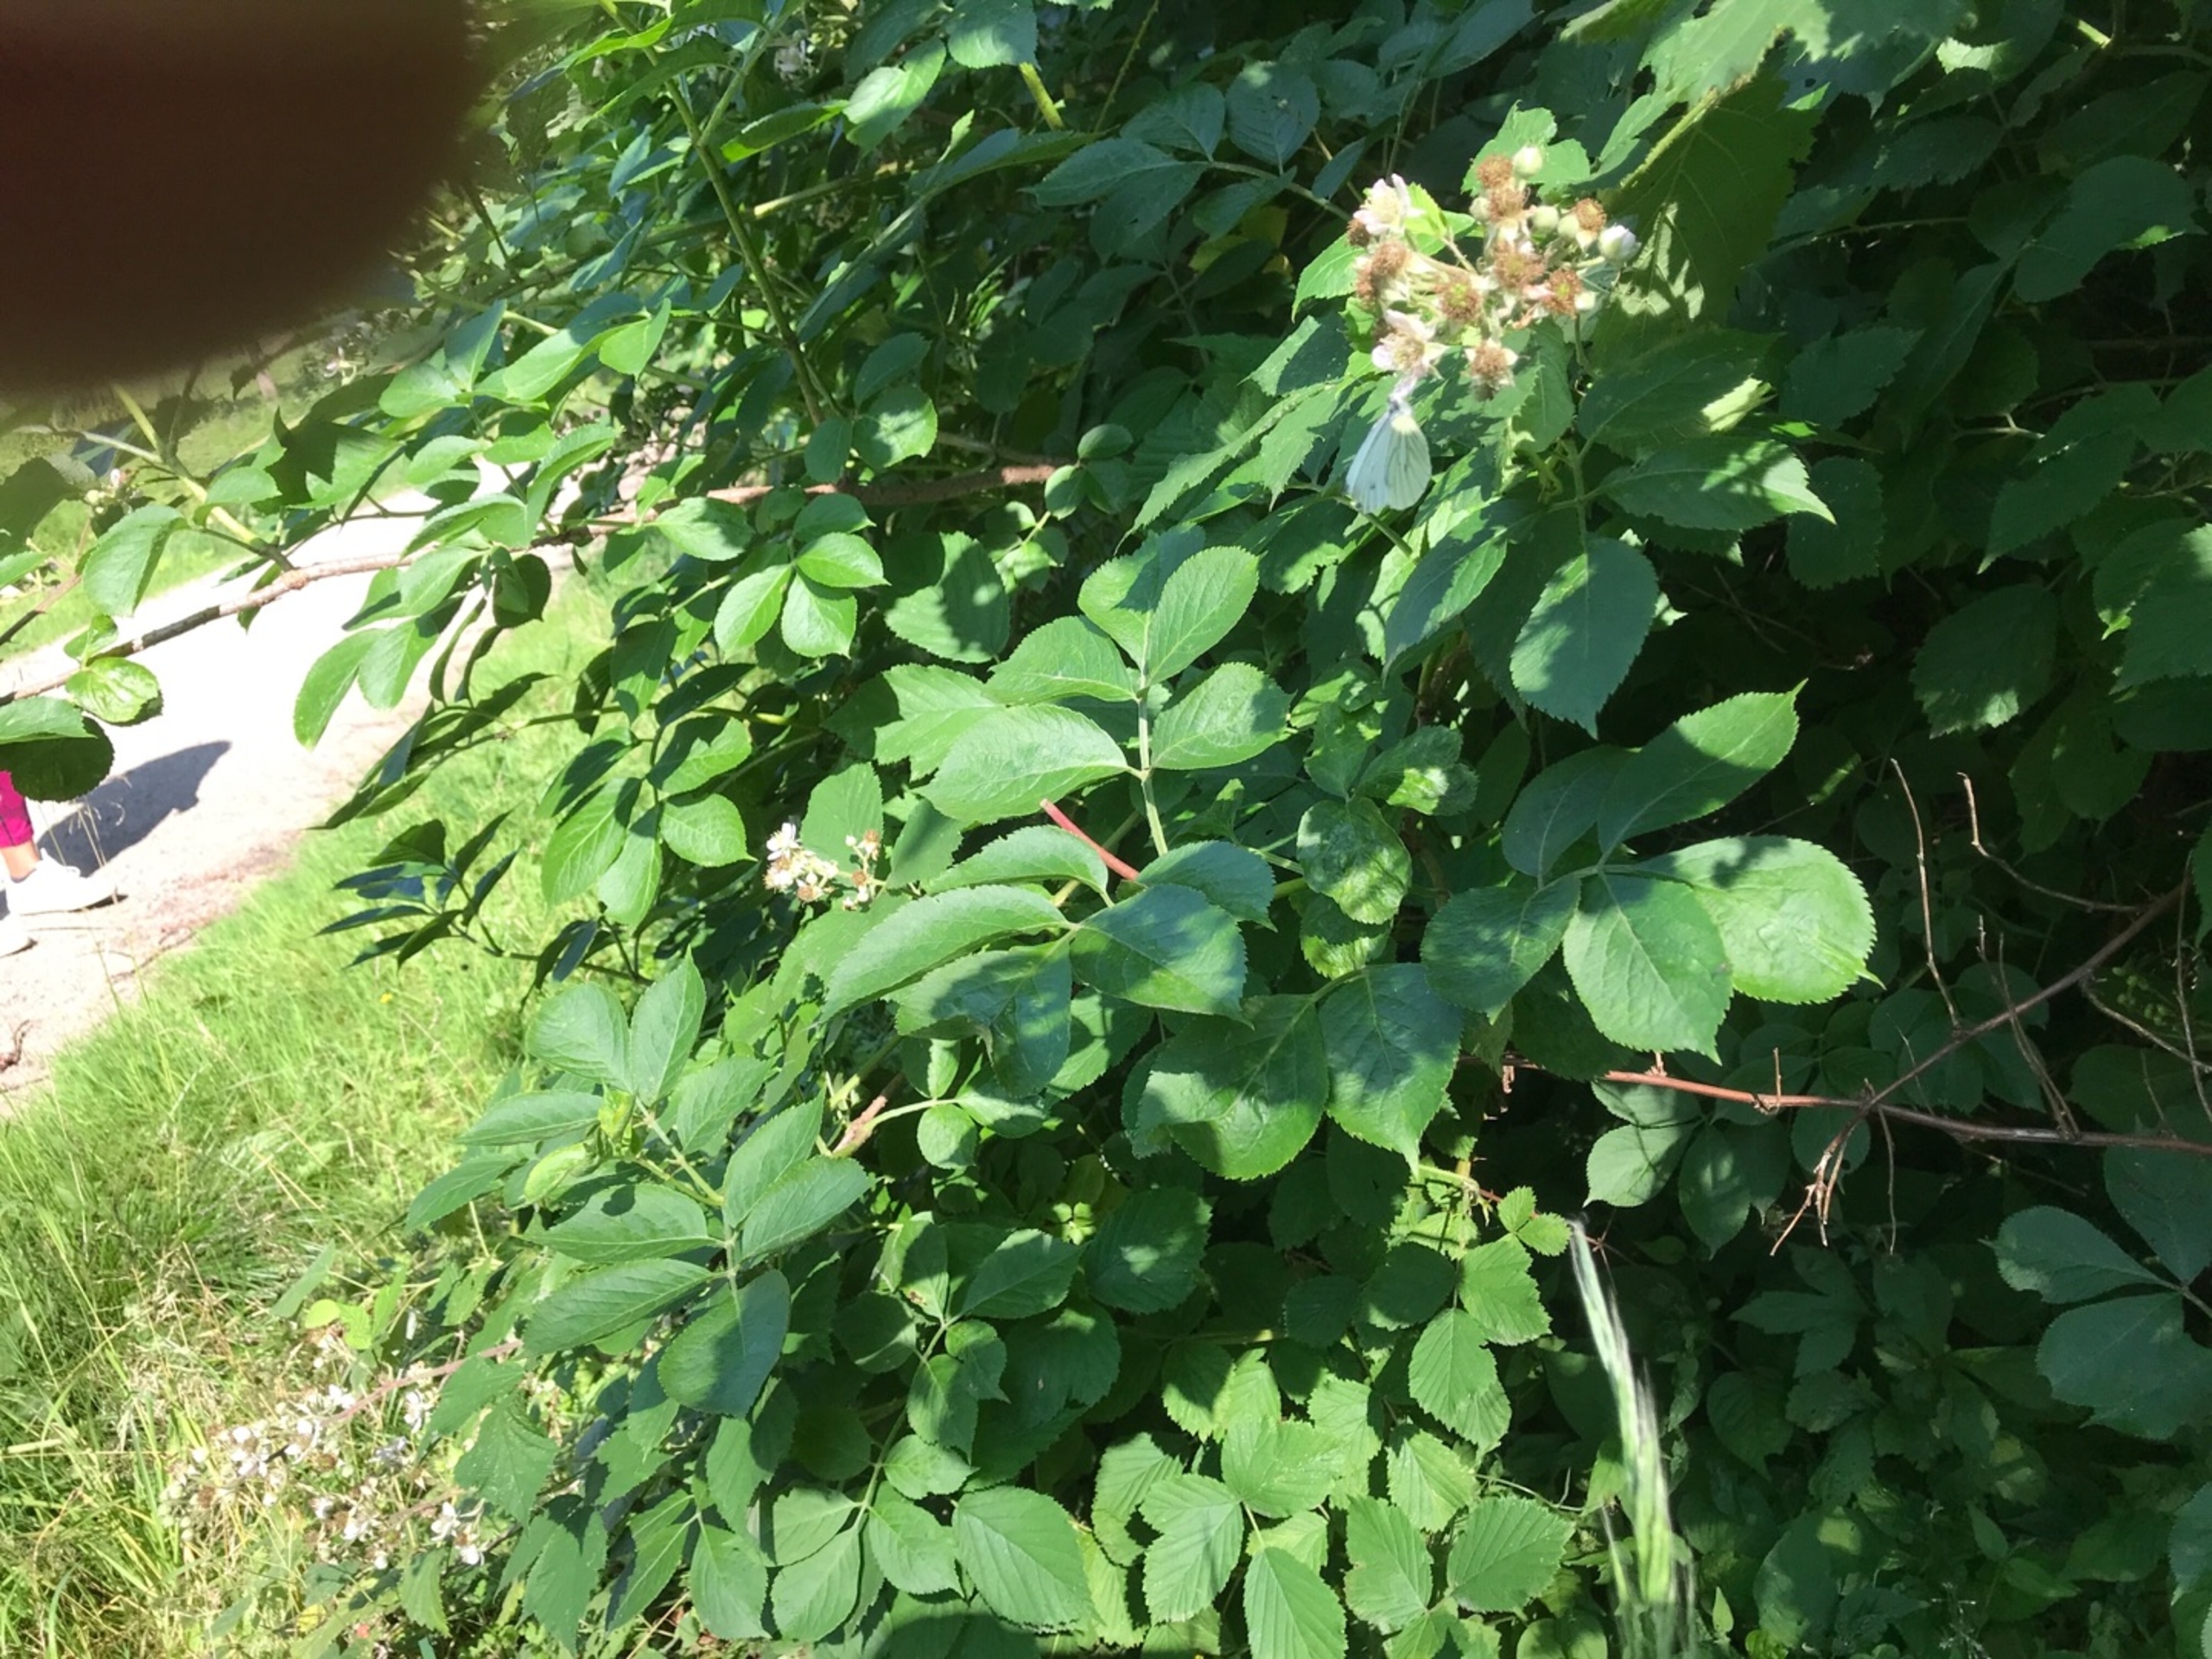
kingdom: Animalia
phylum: Arthropoda
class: Insecta
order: Lepidoptera
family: Pieridae
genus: Pieris
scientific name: Pieris napi
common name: Grønåret kålsommerfugl
